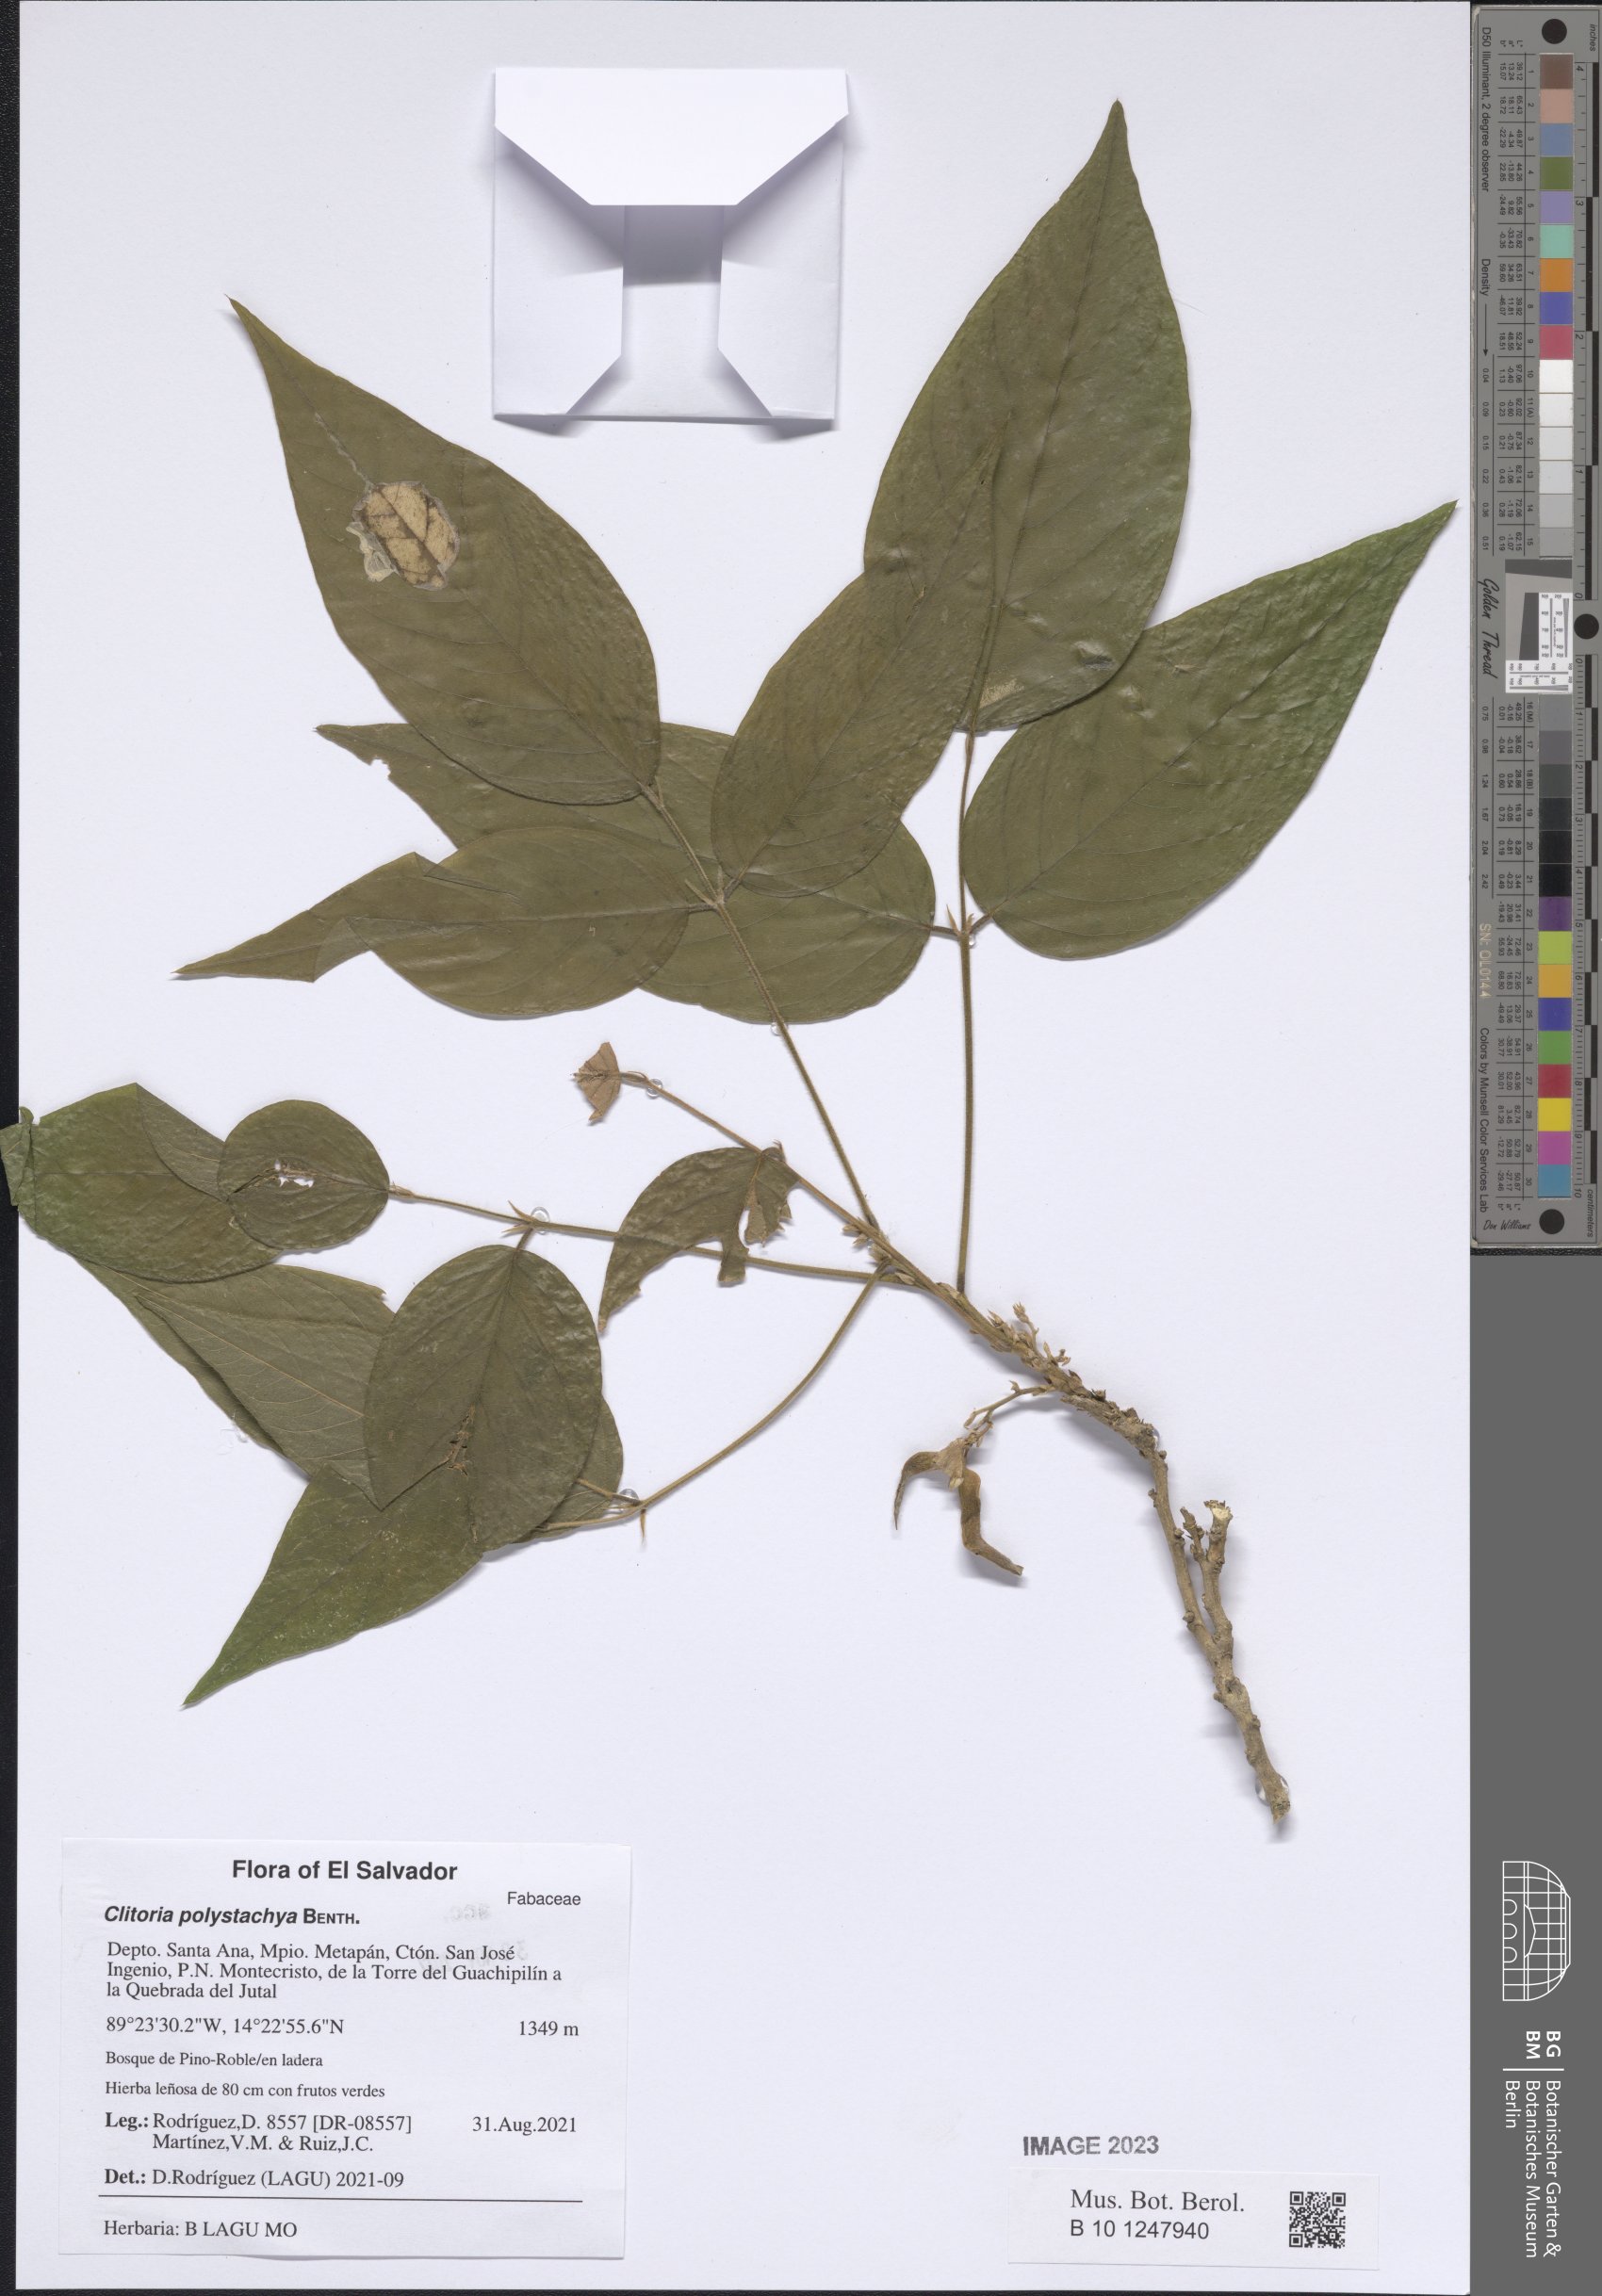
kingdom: Plantae
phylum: Tracheophyta
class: Magnoliopsida
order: Fabales
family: Fabaceae
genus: Clitoria
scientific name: Clitoria polystachya
